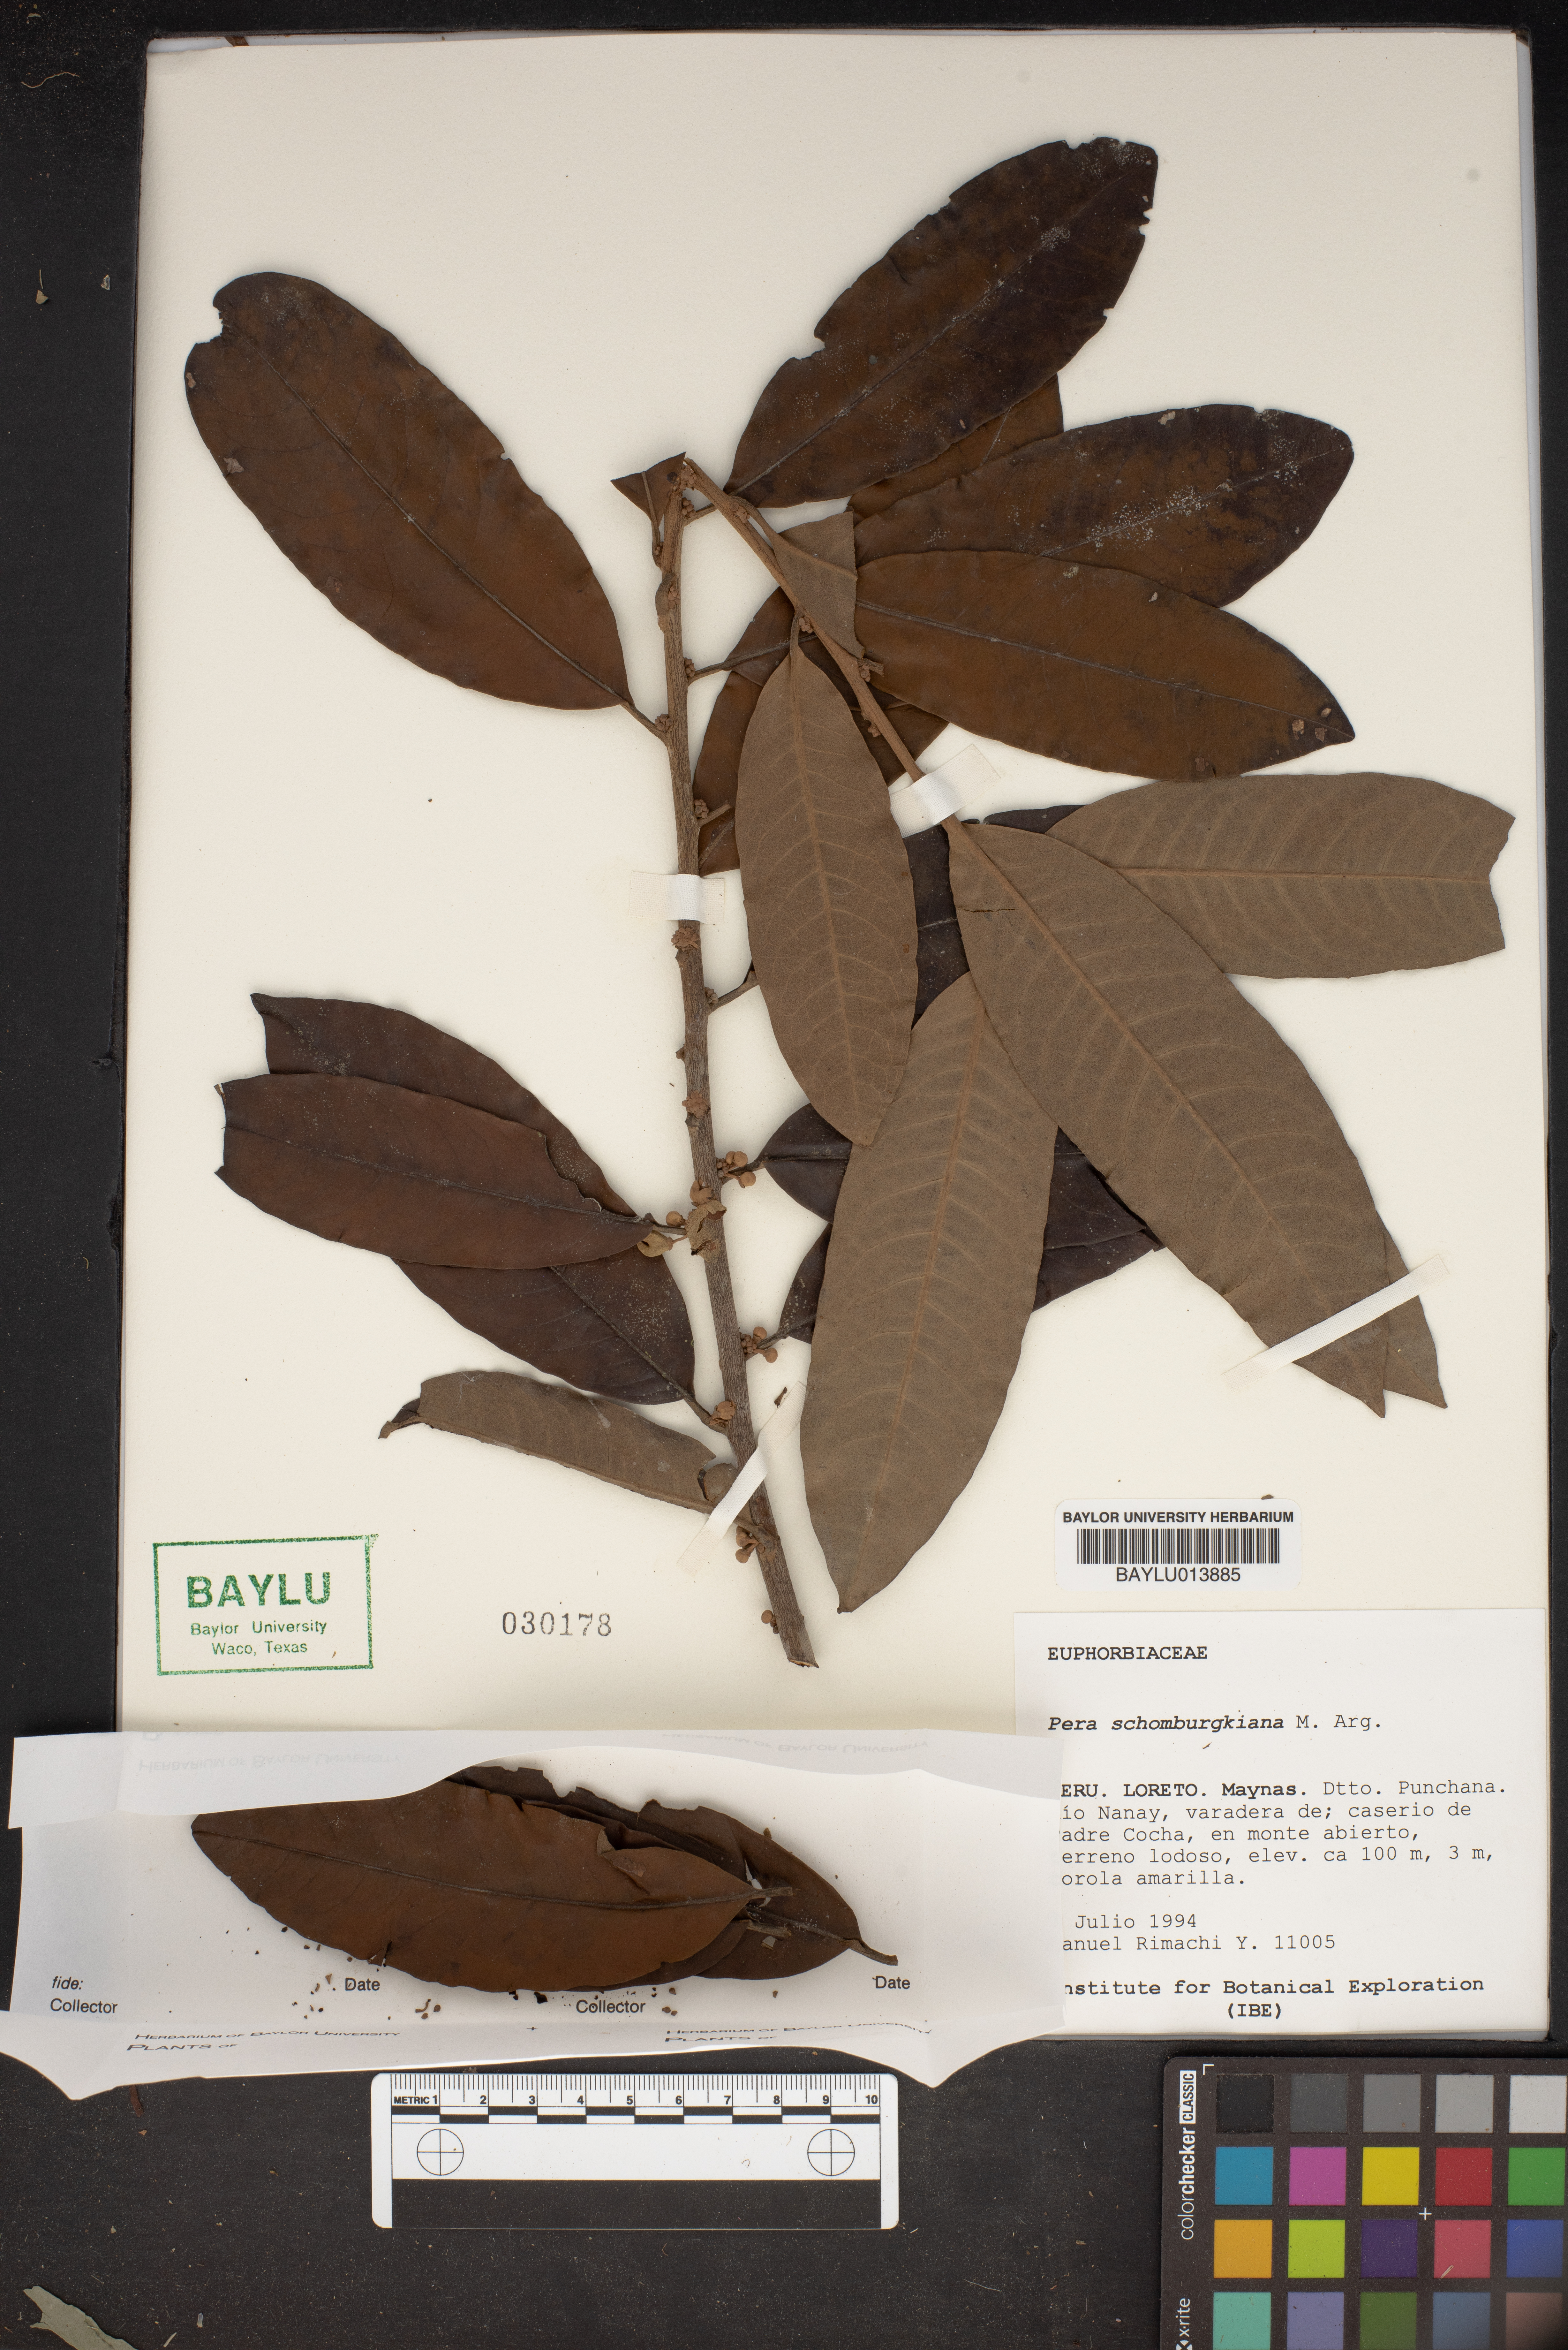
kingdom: Plantae
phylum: Tracheophyta
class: Magnoliopsida
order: Malpighiales
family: Peraceae
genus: Pera
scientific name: Pera bicolor
